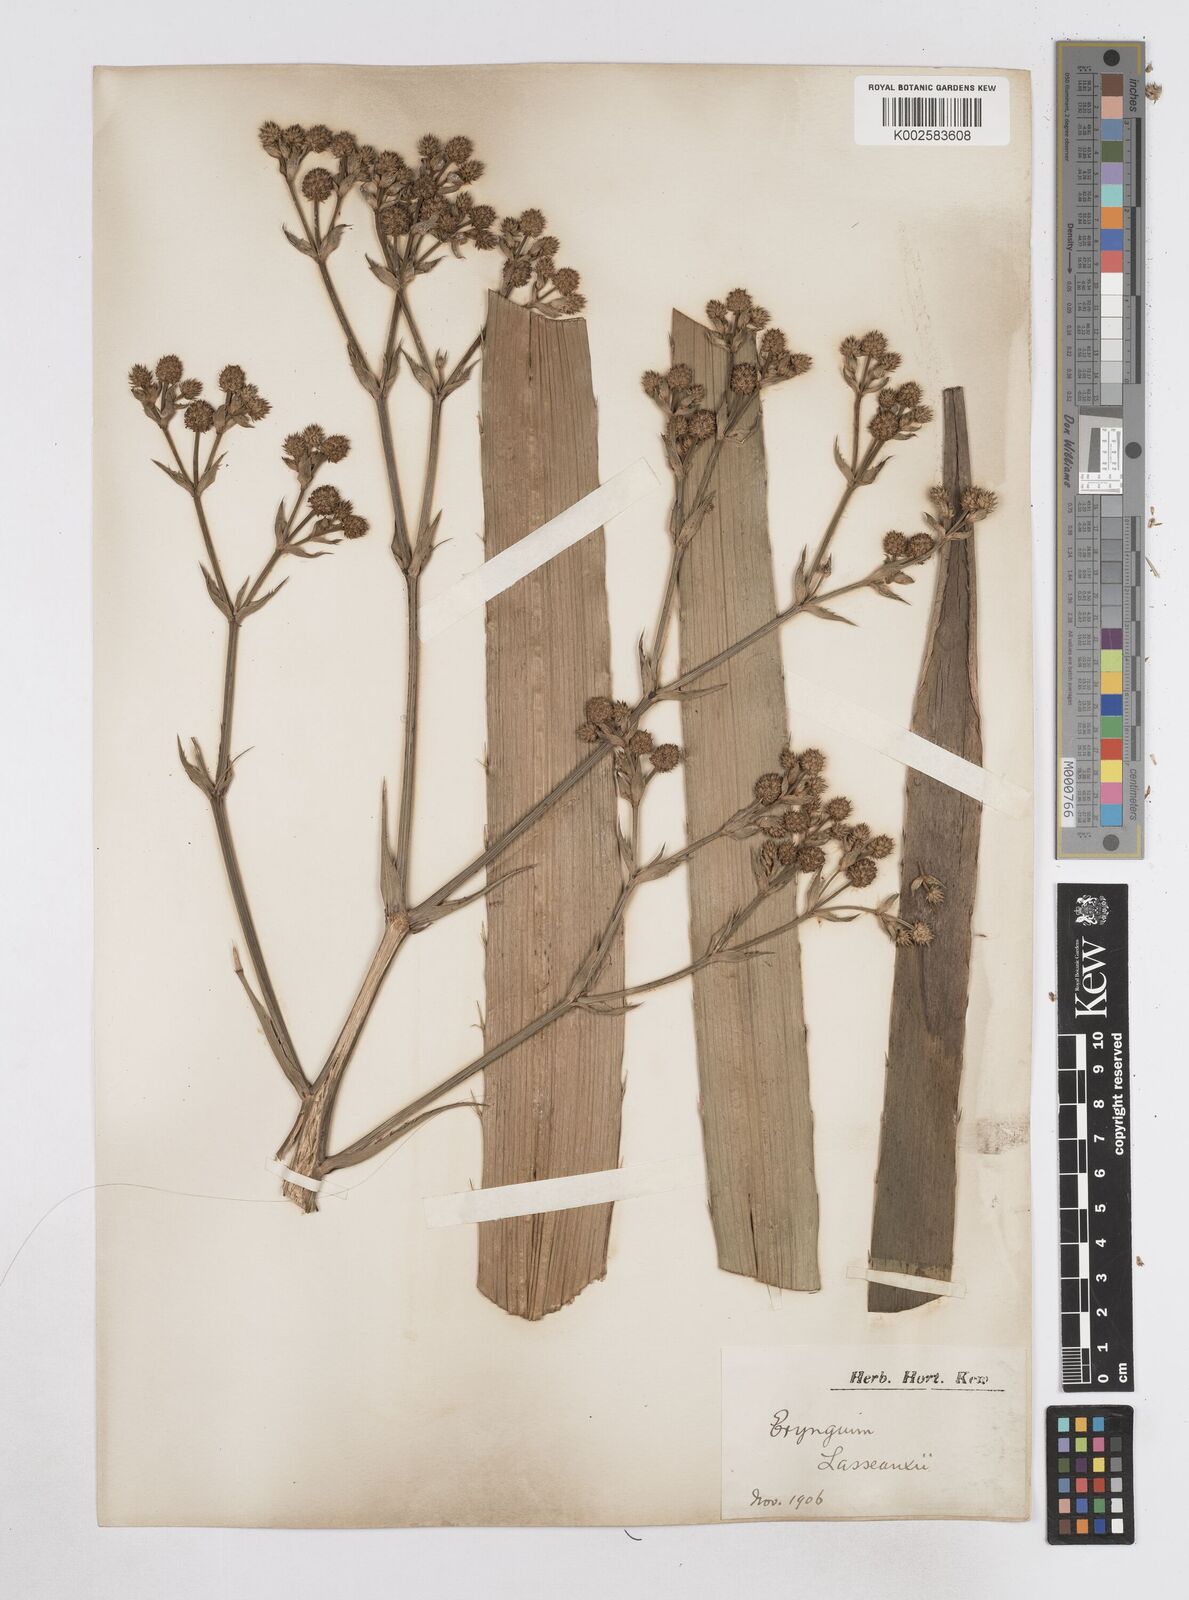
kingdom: Plantae
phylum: Tracheophyta
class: Magnoliopsida
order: Apiales
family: Apiaceae
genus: Eryngium
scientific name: Eryngium mesopotamicum
